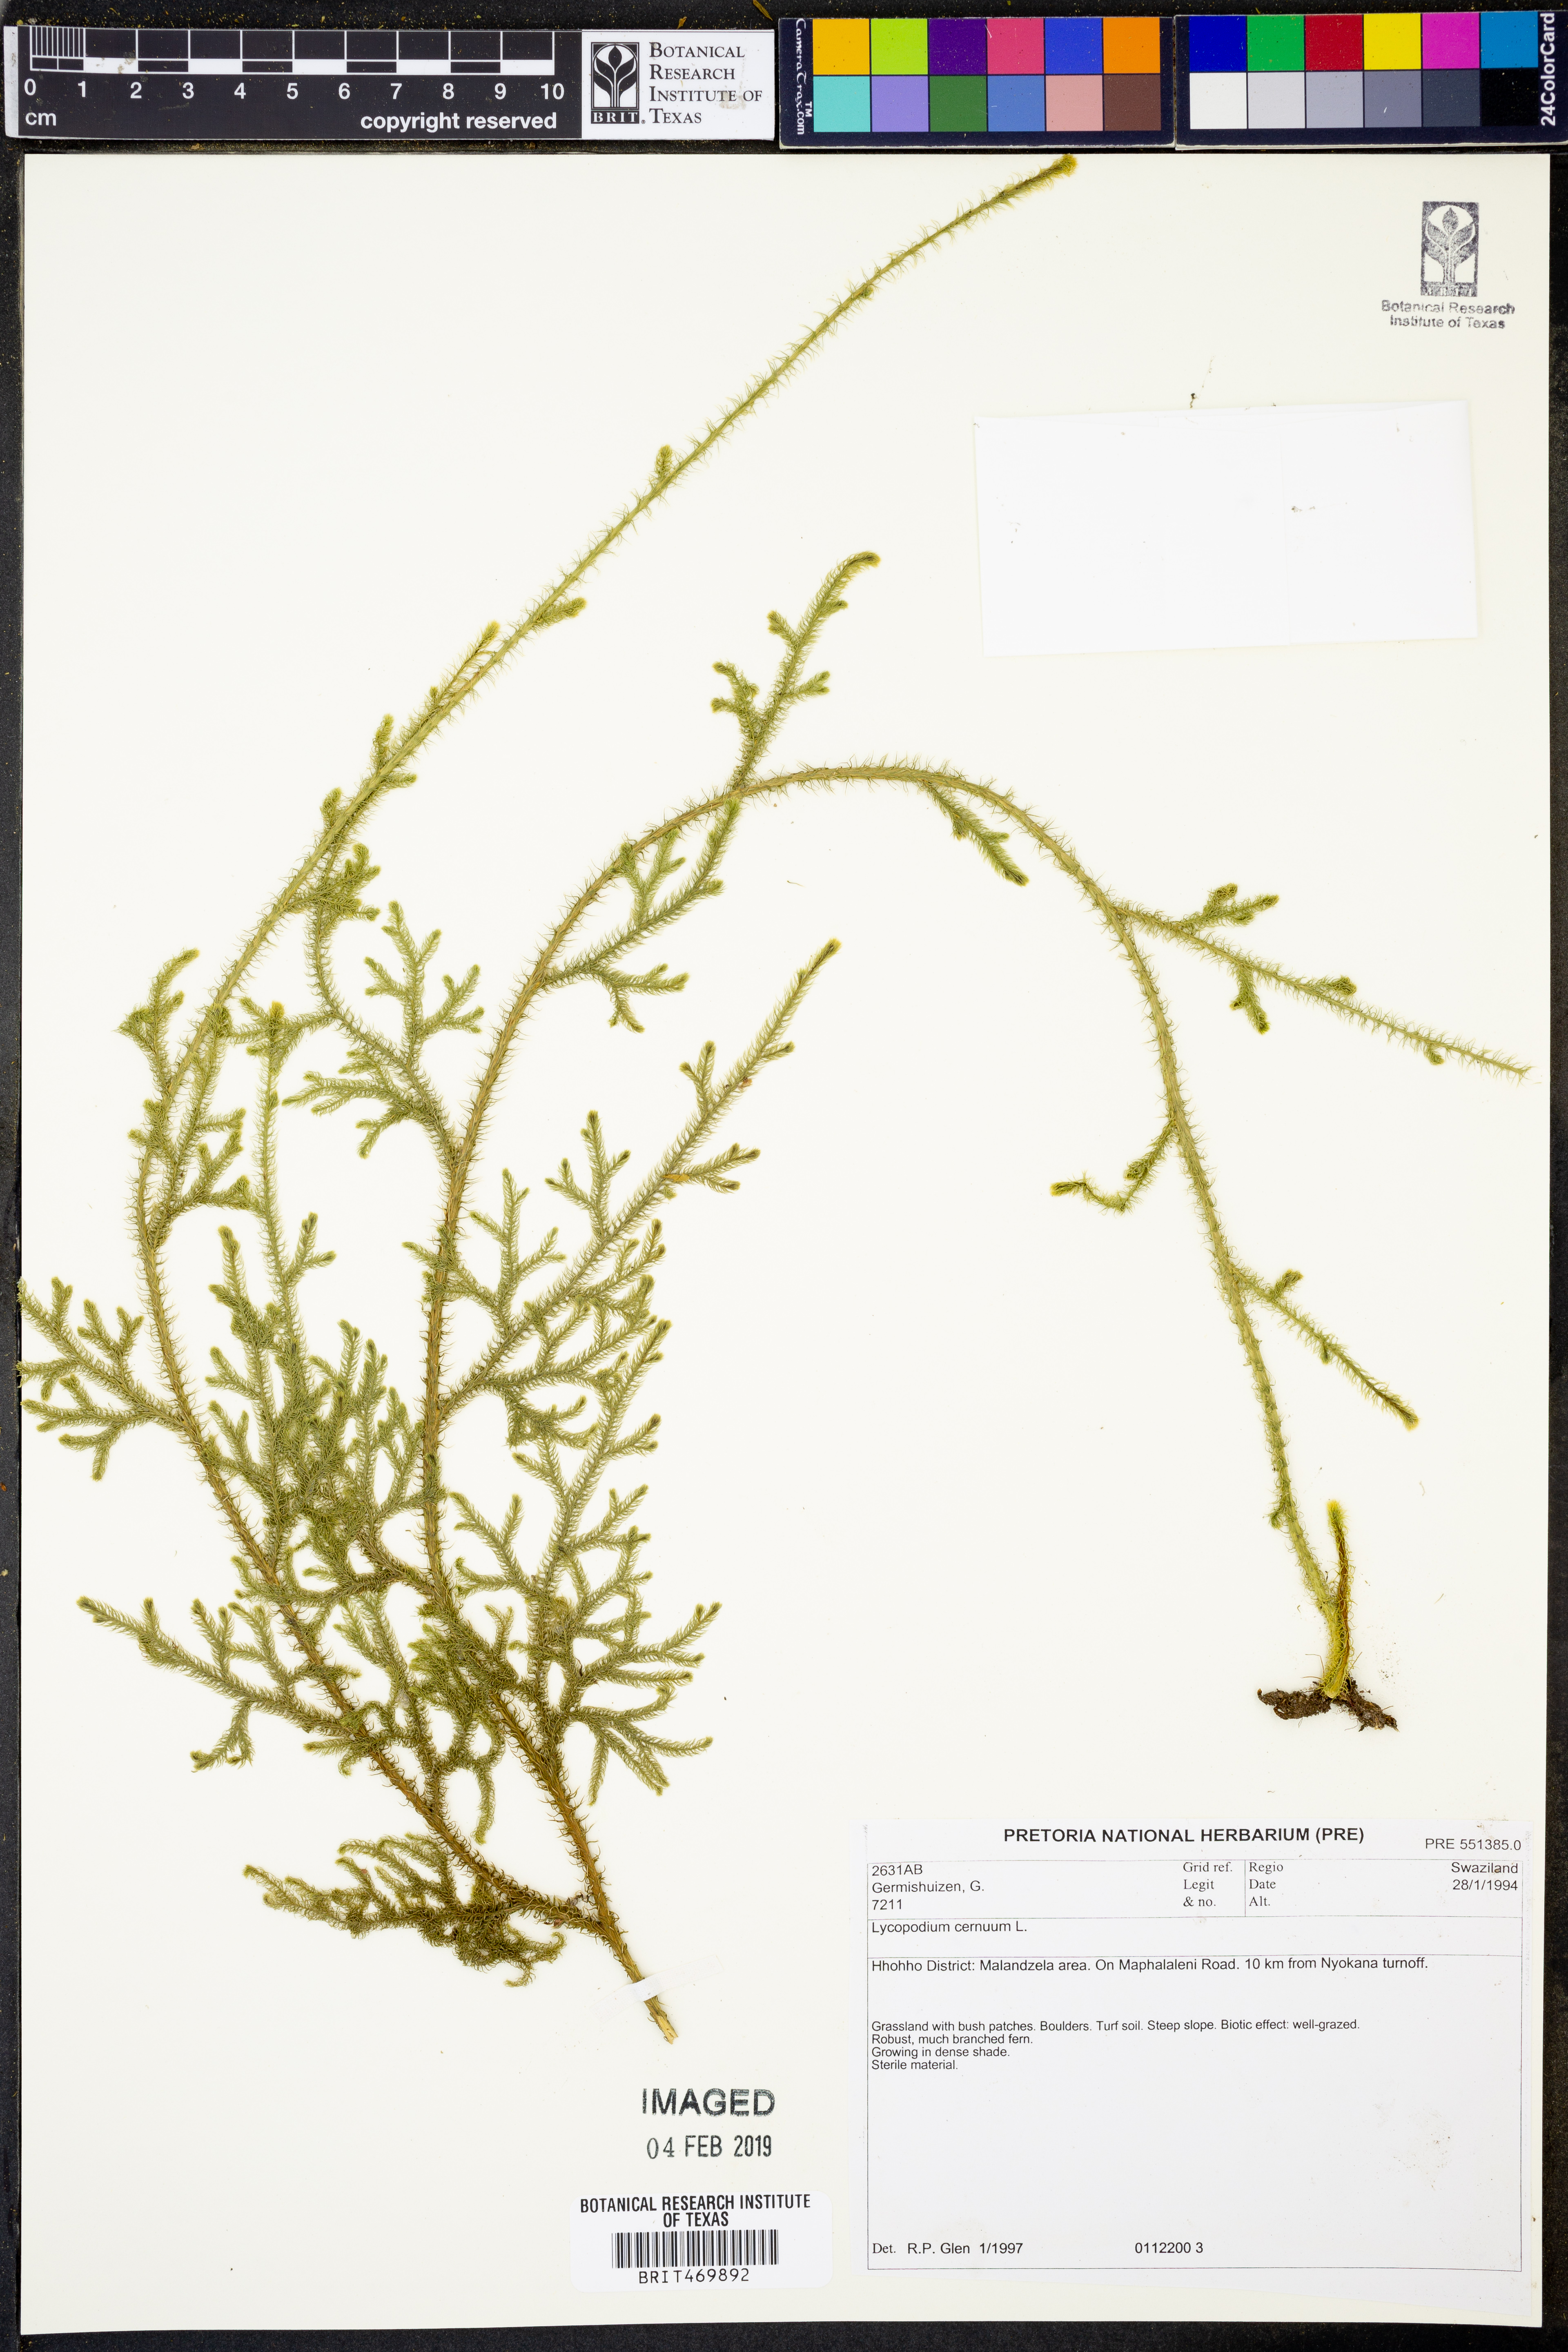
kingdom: Plantae
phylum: Tracheophyta
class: Lycopodiopsida
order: Lycopodiales
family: Lycopodiaceae
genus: Palhinhaea
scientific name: Palhinhaea cernua
